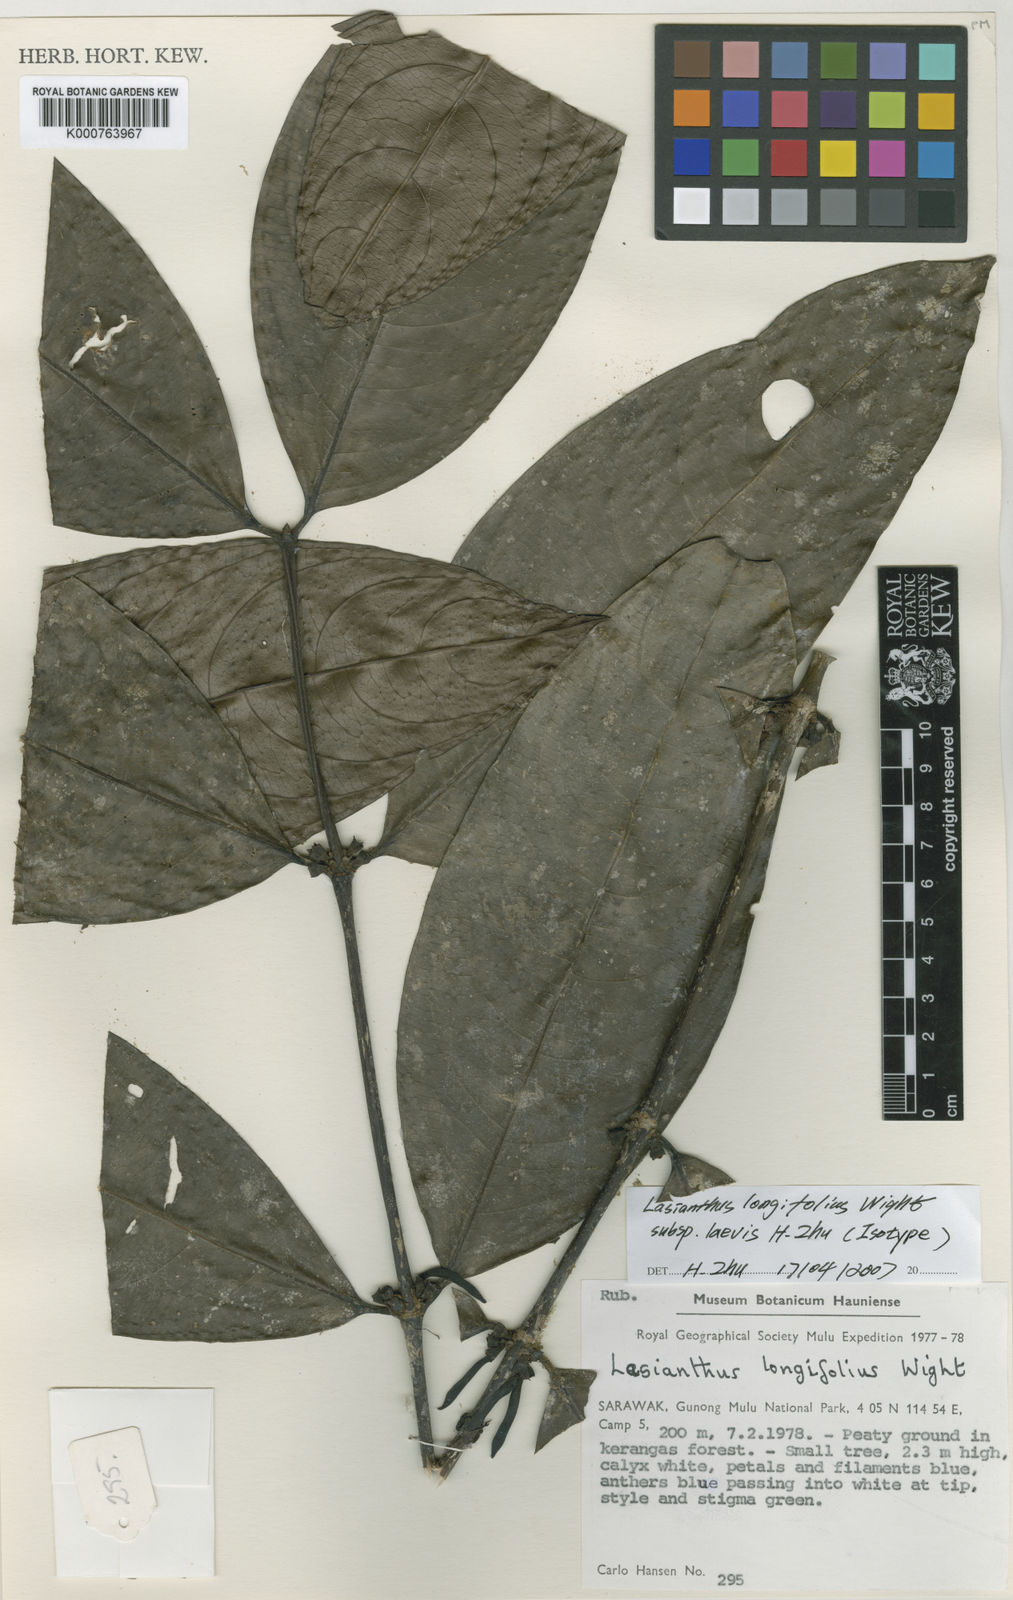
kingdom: Plantae
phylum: Tracheophyta
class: Magnoliopsida
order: Gentianales
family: Rubiaceae
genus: Lasianthus
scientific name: Lasianthus longifolius
